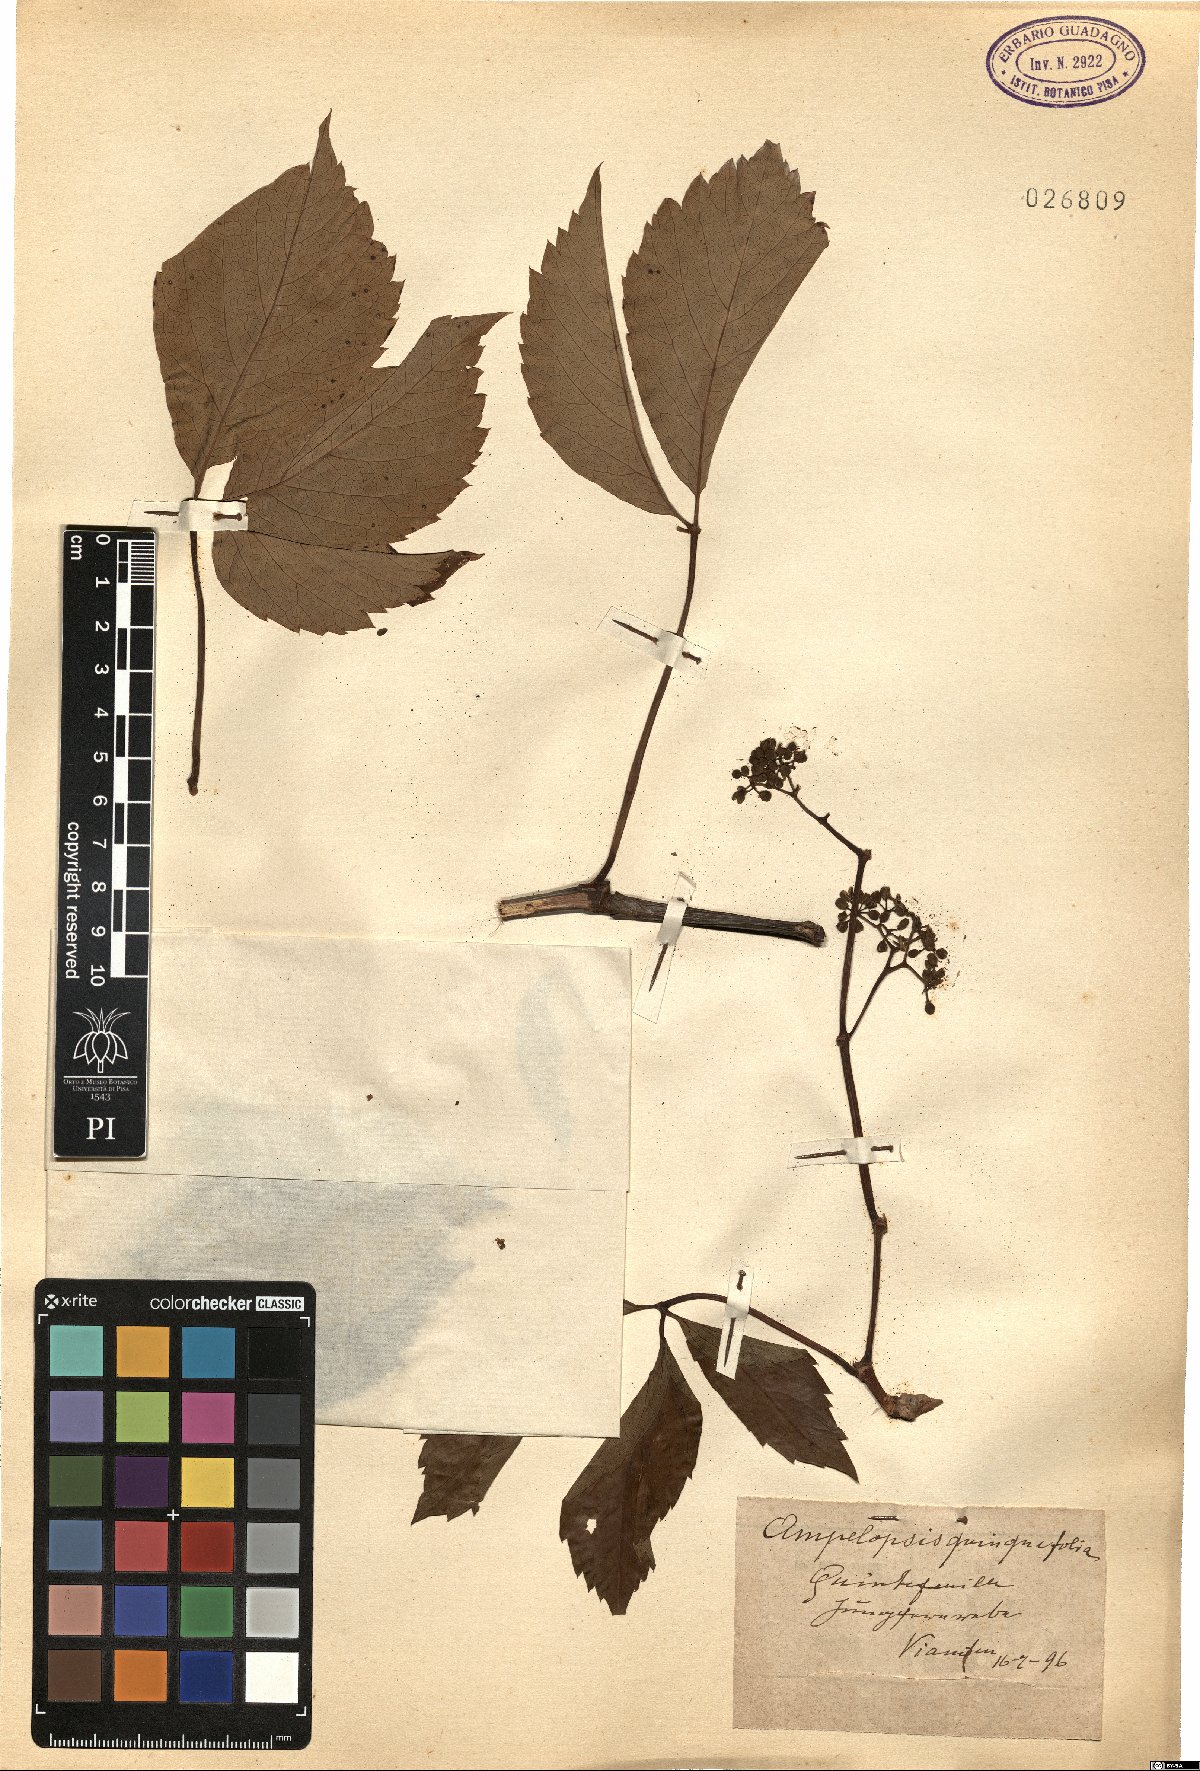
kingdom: Plantae
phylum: Tracheophyta
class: Magnoliopsida
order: Vitales
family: Vitaceae
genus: Parthenocissus
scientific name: Parthenocissus quinquefolia
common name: Virginia-creeper
